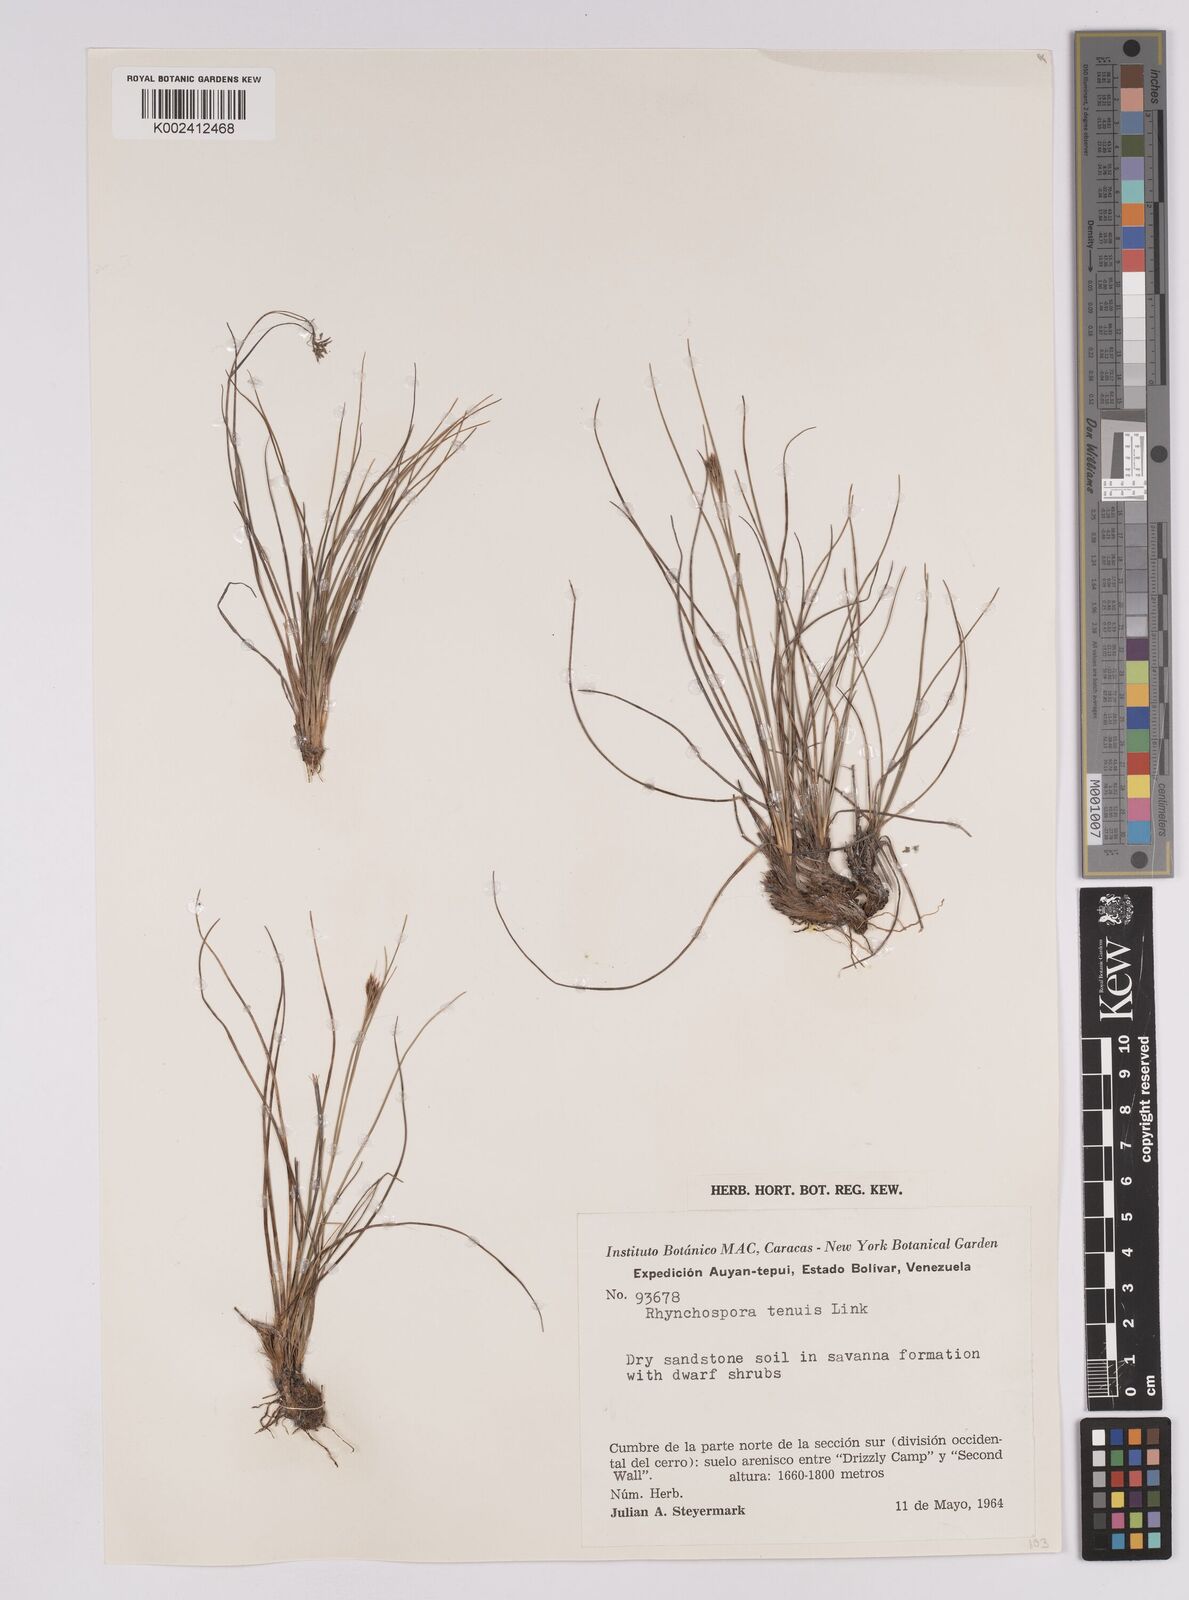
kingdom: Plantae
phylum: Tracheophyta
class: Liliopsida
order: Poales
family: Cyperaceae
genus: Rhynchospora
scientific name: Rhynchospora tenuis
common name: Quill beaksedge
